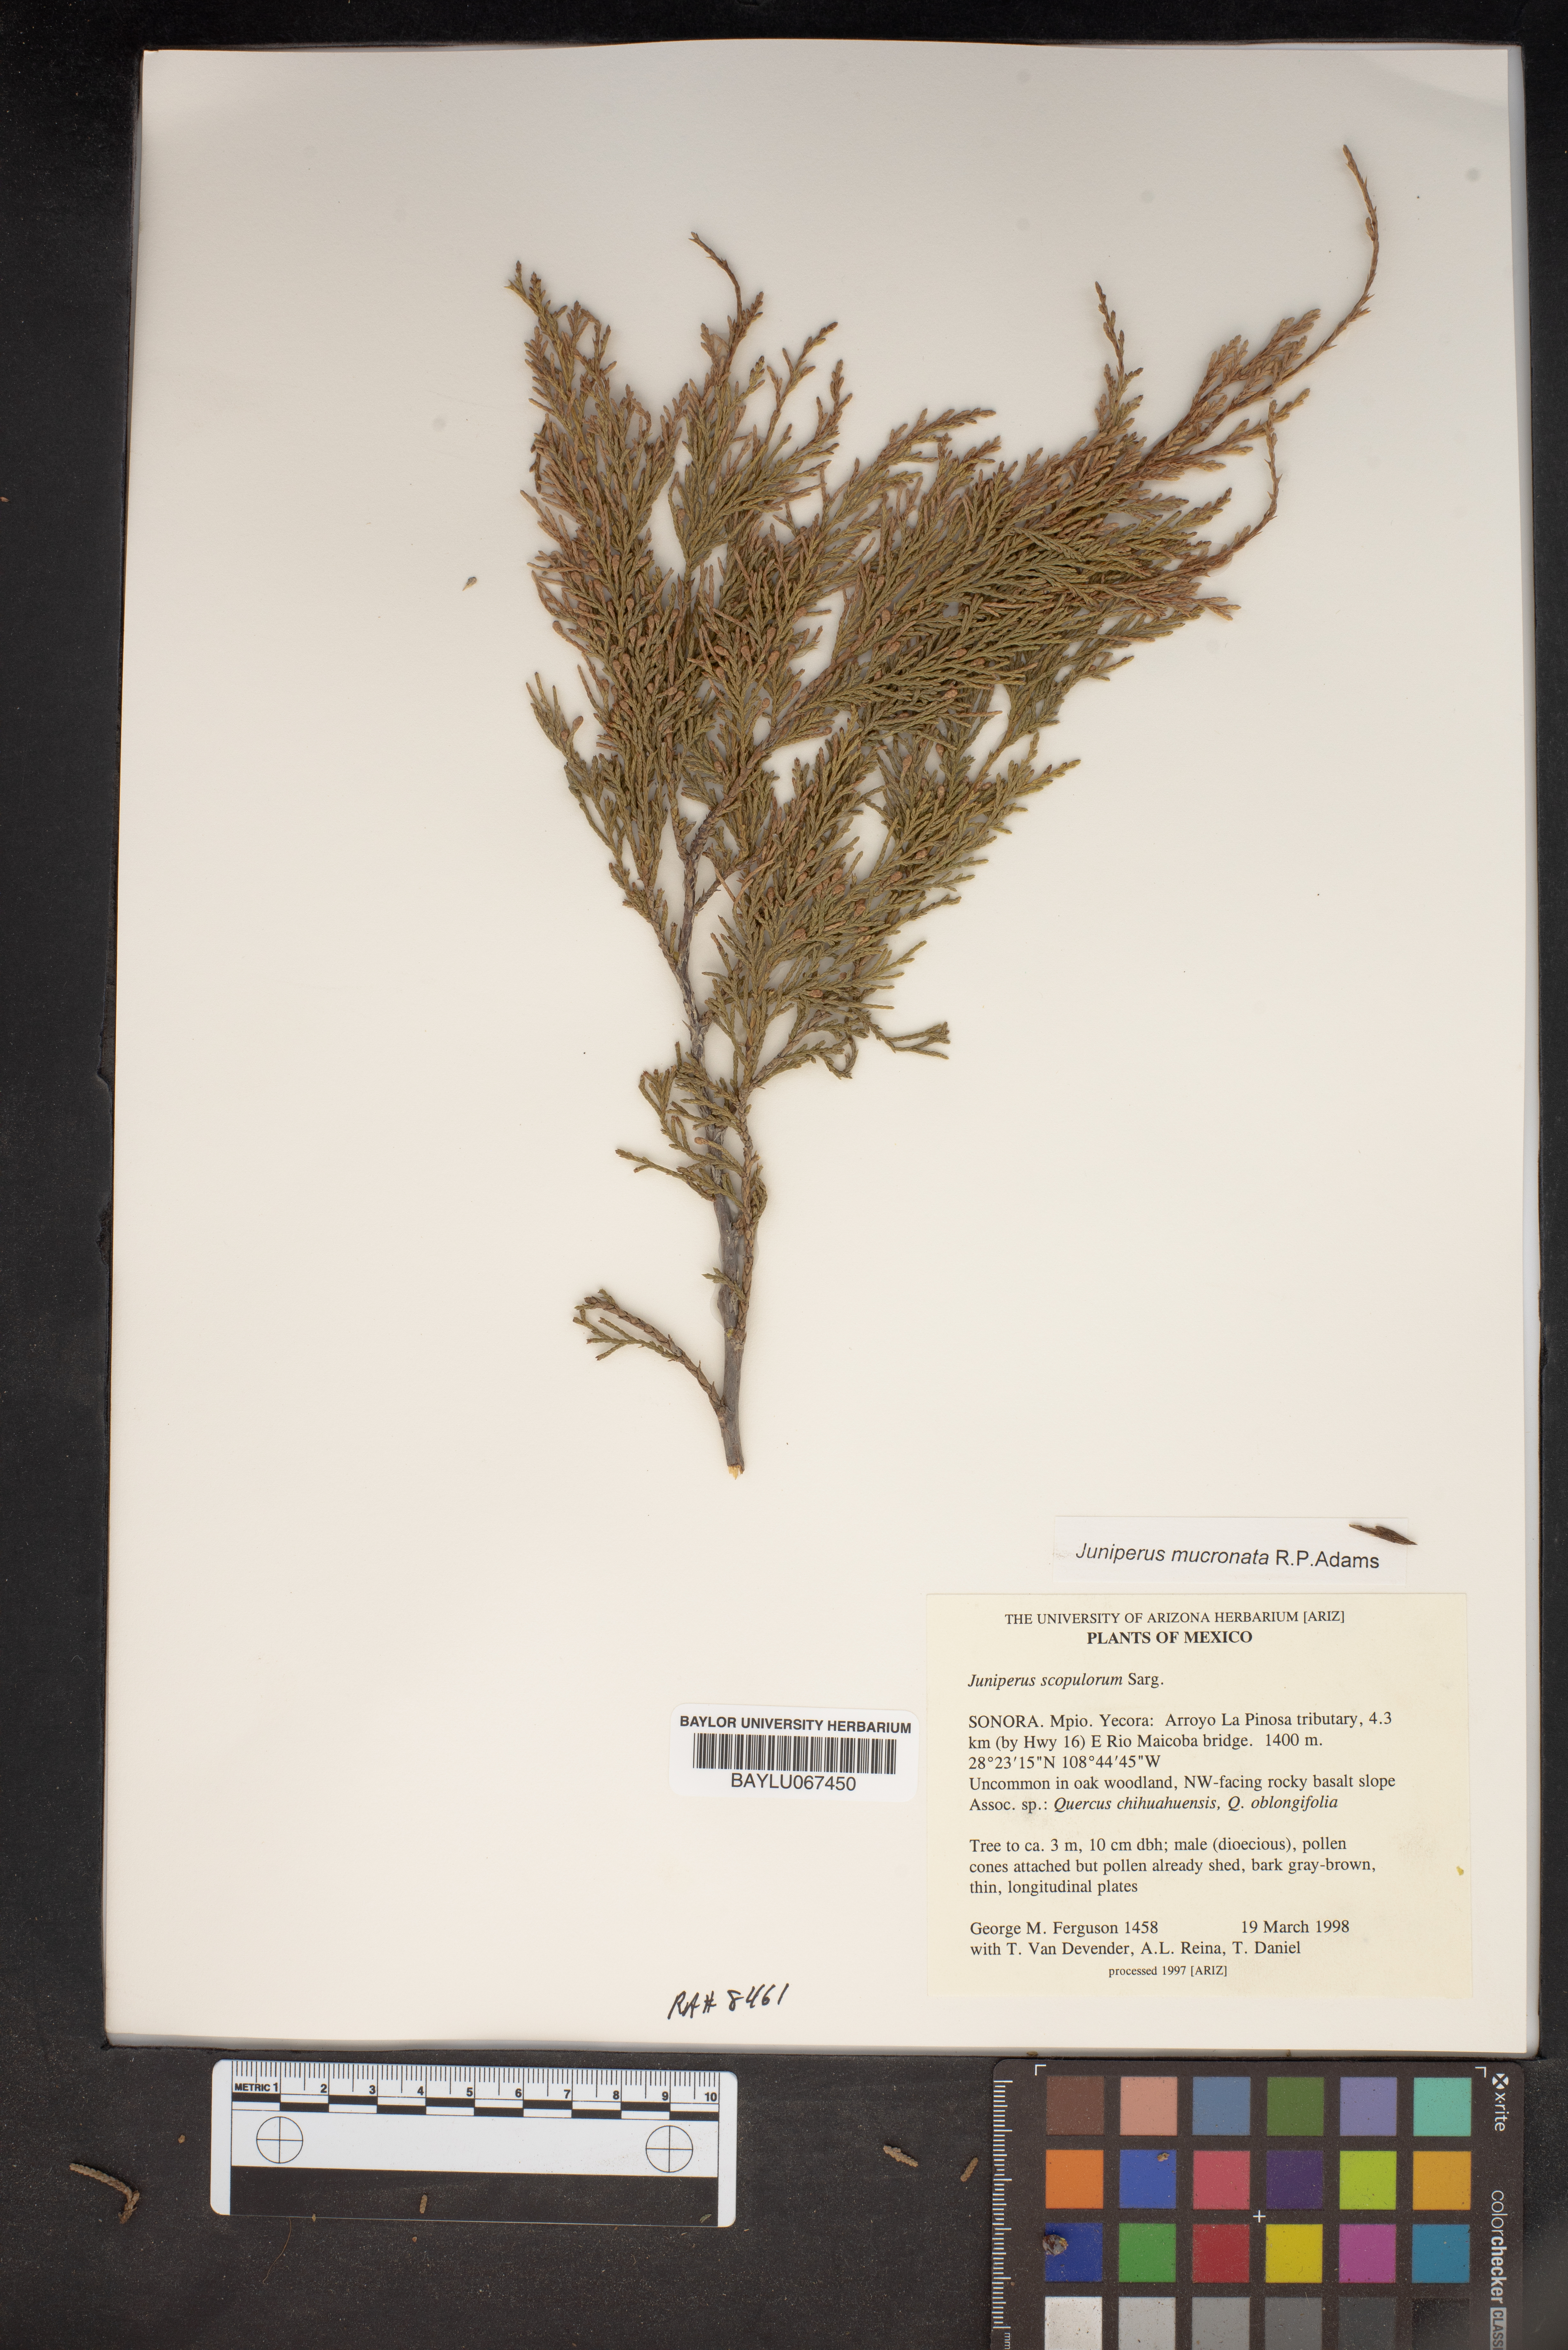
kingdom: Plantae
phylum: Tracheophyta
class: Pinopsida
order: Pinales
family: Cupressaceae
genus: Juniperus
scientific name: Juniperus scopulorum
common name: Rocky mountain juniper
